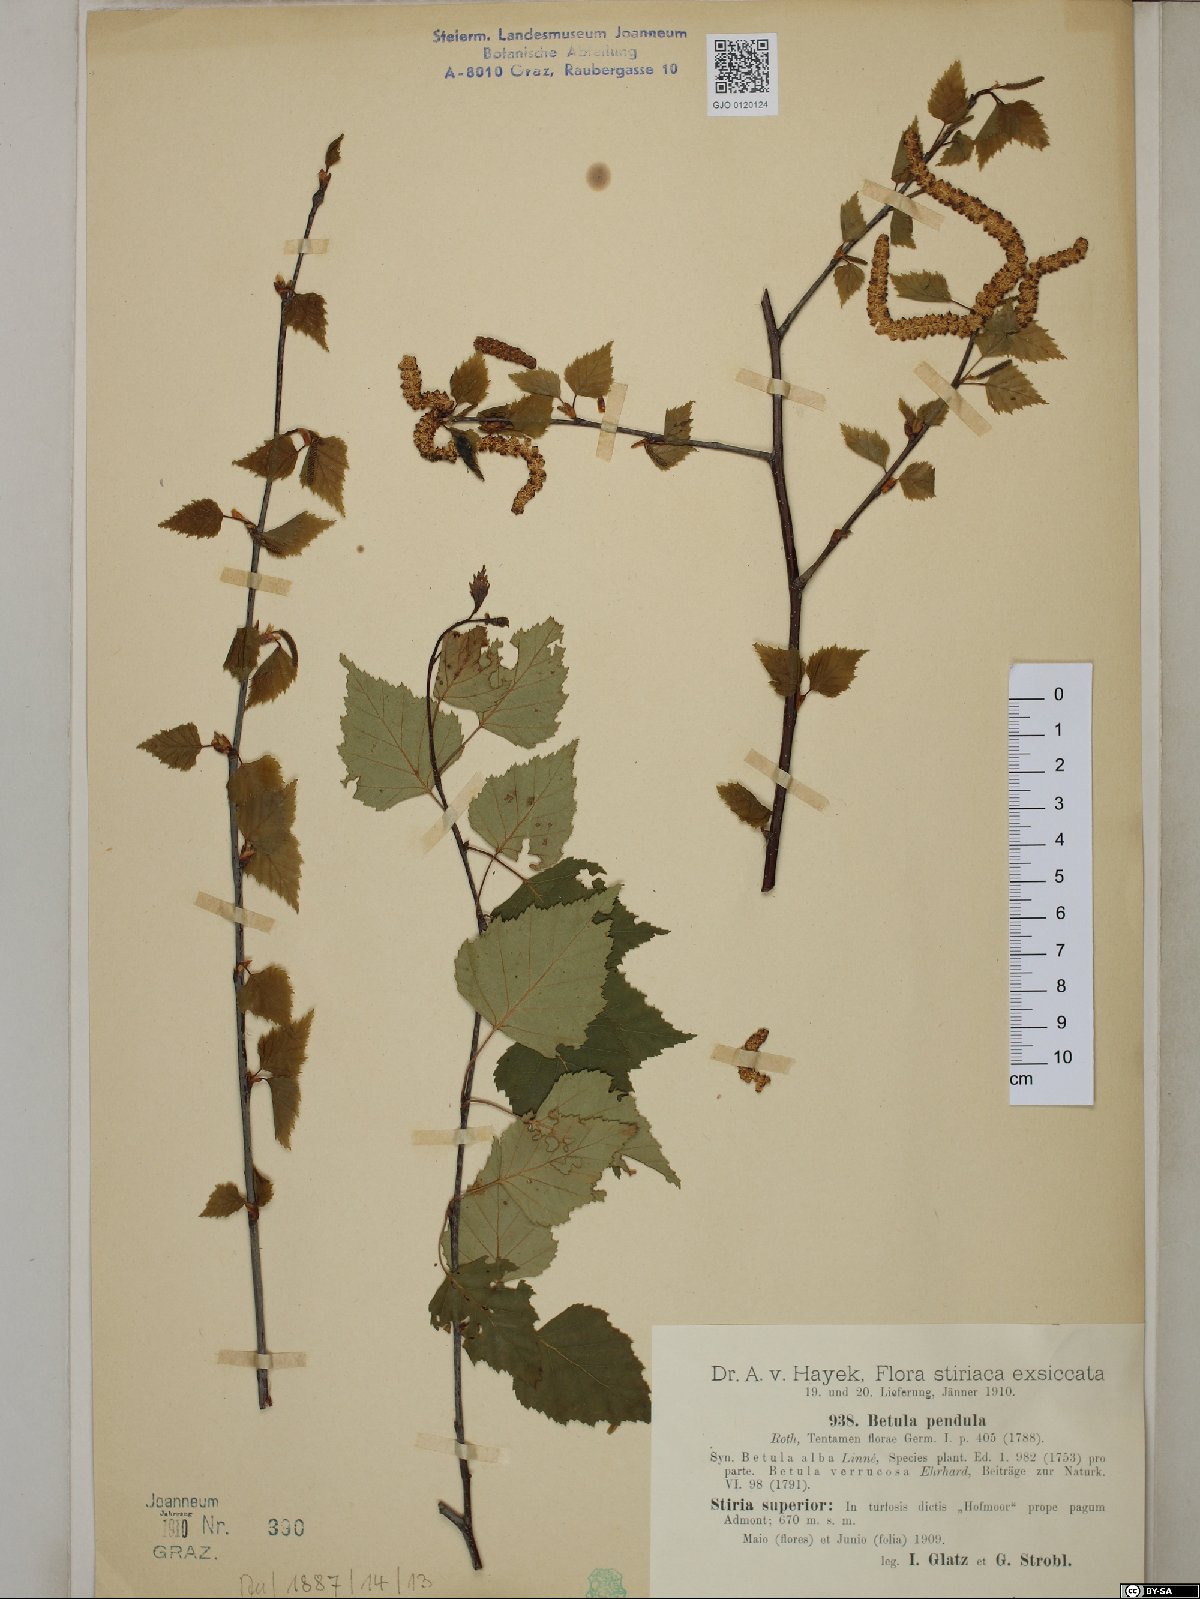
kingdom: Plantae
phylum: Tracheophyta
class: Magnoliopsida
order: Fagales
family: Betulaceae
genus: Betula
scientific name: Betula pendula
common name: Silver birch
